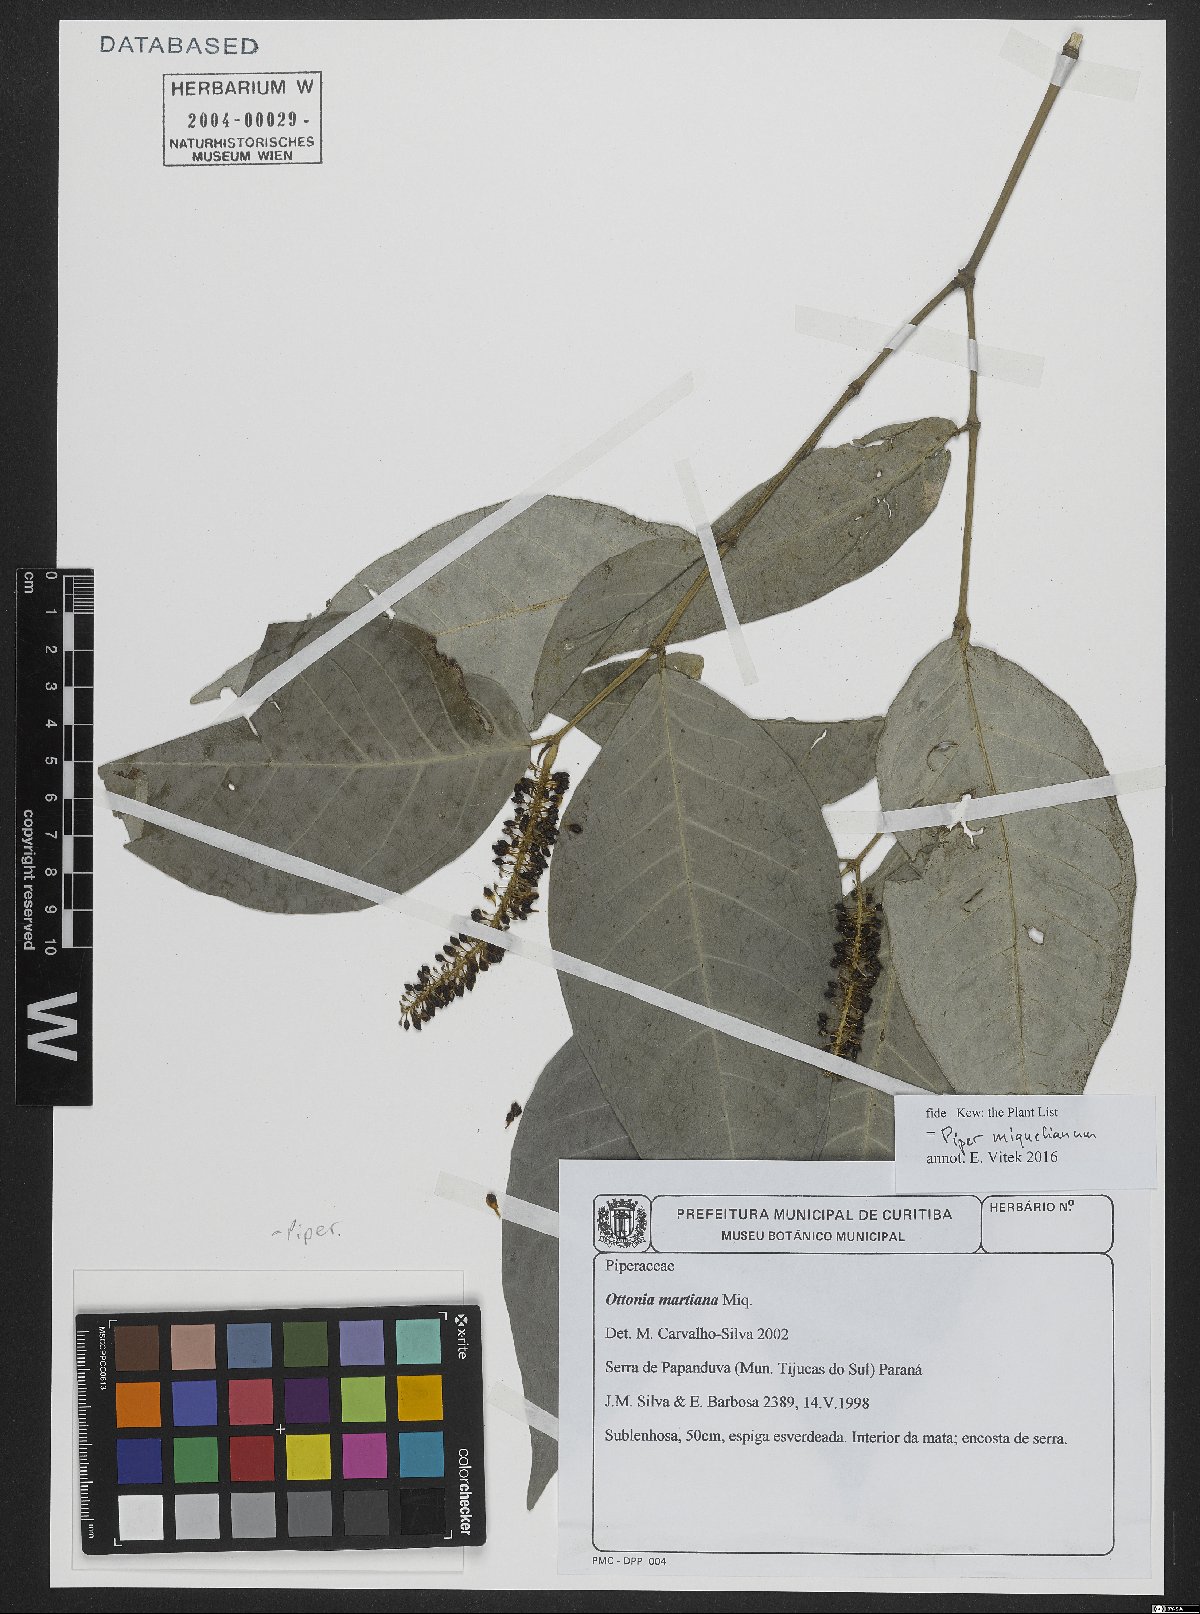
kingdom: Plantae
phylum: Tracheophyta
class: Magnoliopsida
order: Piperales
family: Piperaceae
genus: Piper
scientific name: Piper miquelianum
